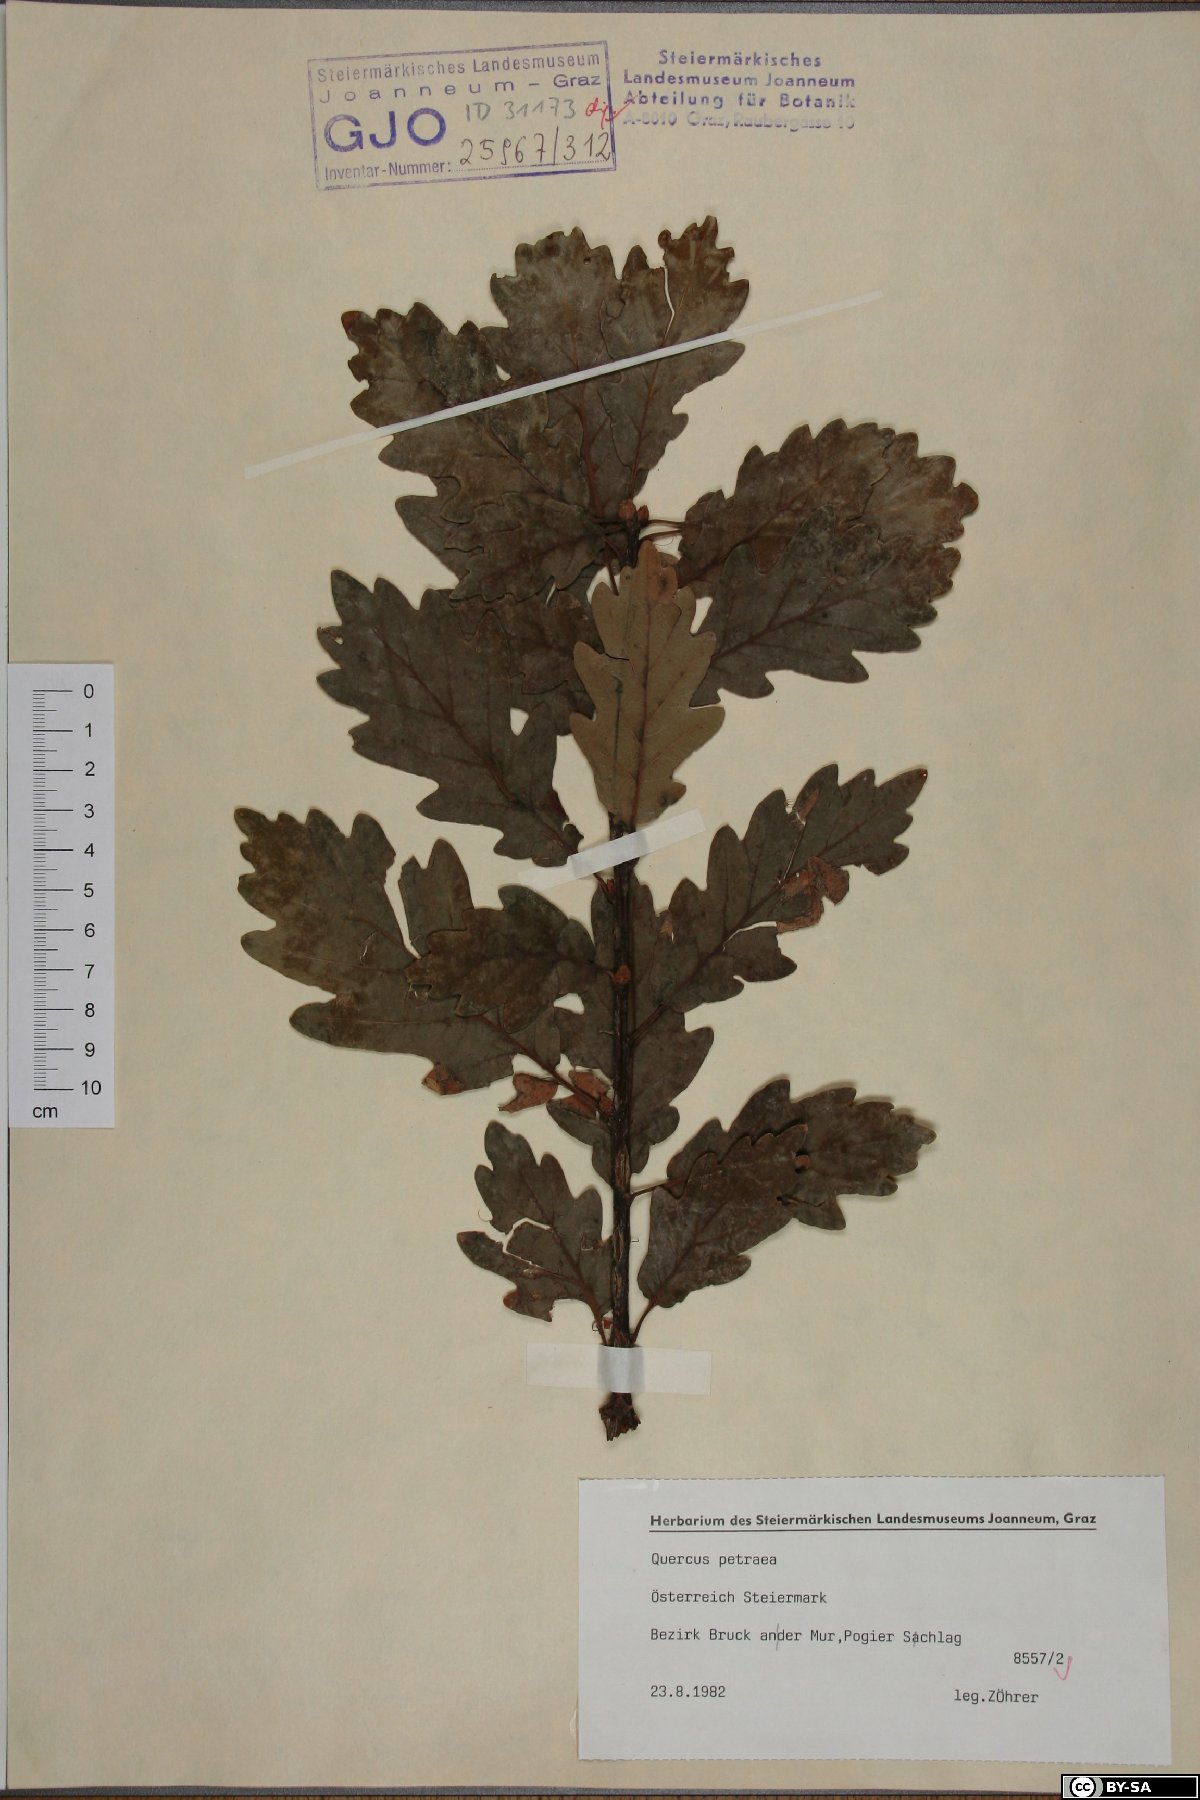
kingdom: Plantae
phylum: Tracheophyta
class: Magnoliopsida
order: Fagales
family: Fagaceae
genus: Quercus
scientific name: Quercus petraea
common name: Sessile oak
